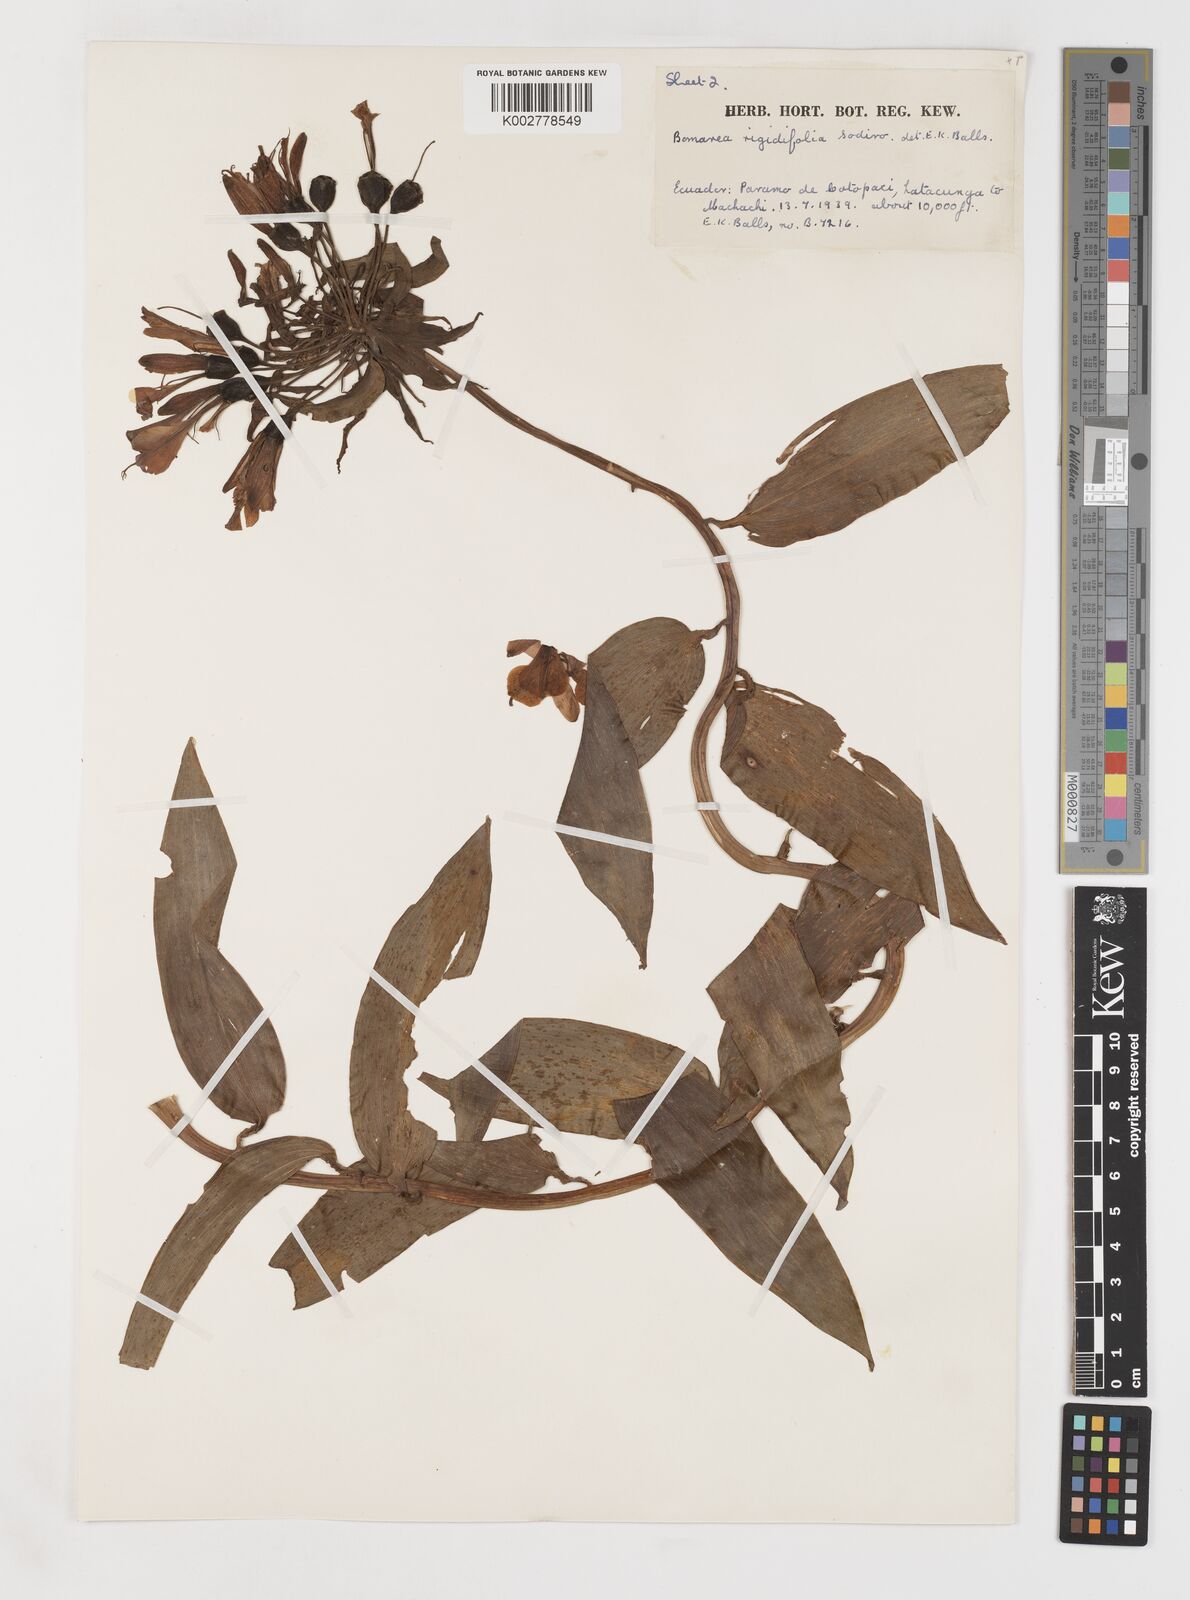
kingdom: Plantae
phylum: Tracheophyta
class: Liliopsida
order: Liliales
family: Alstroemeriaceae
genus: Bomarea
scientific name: Bomarea multiflora
